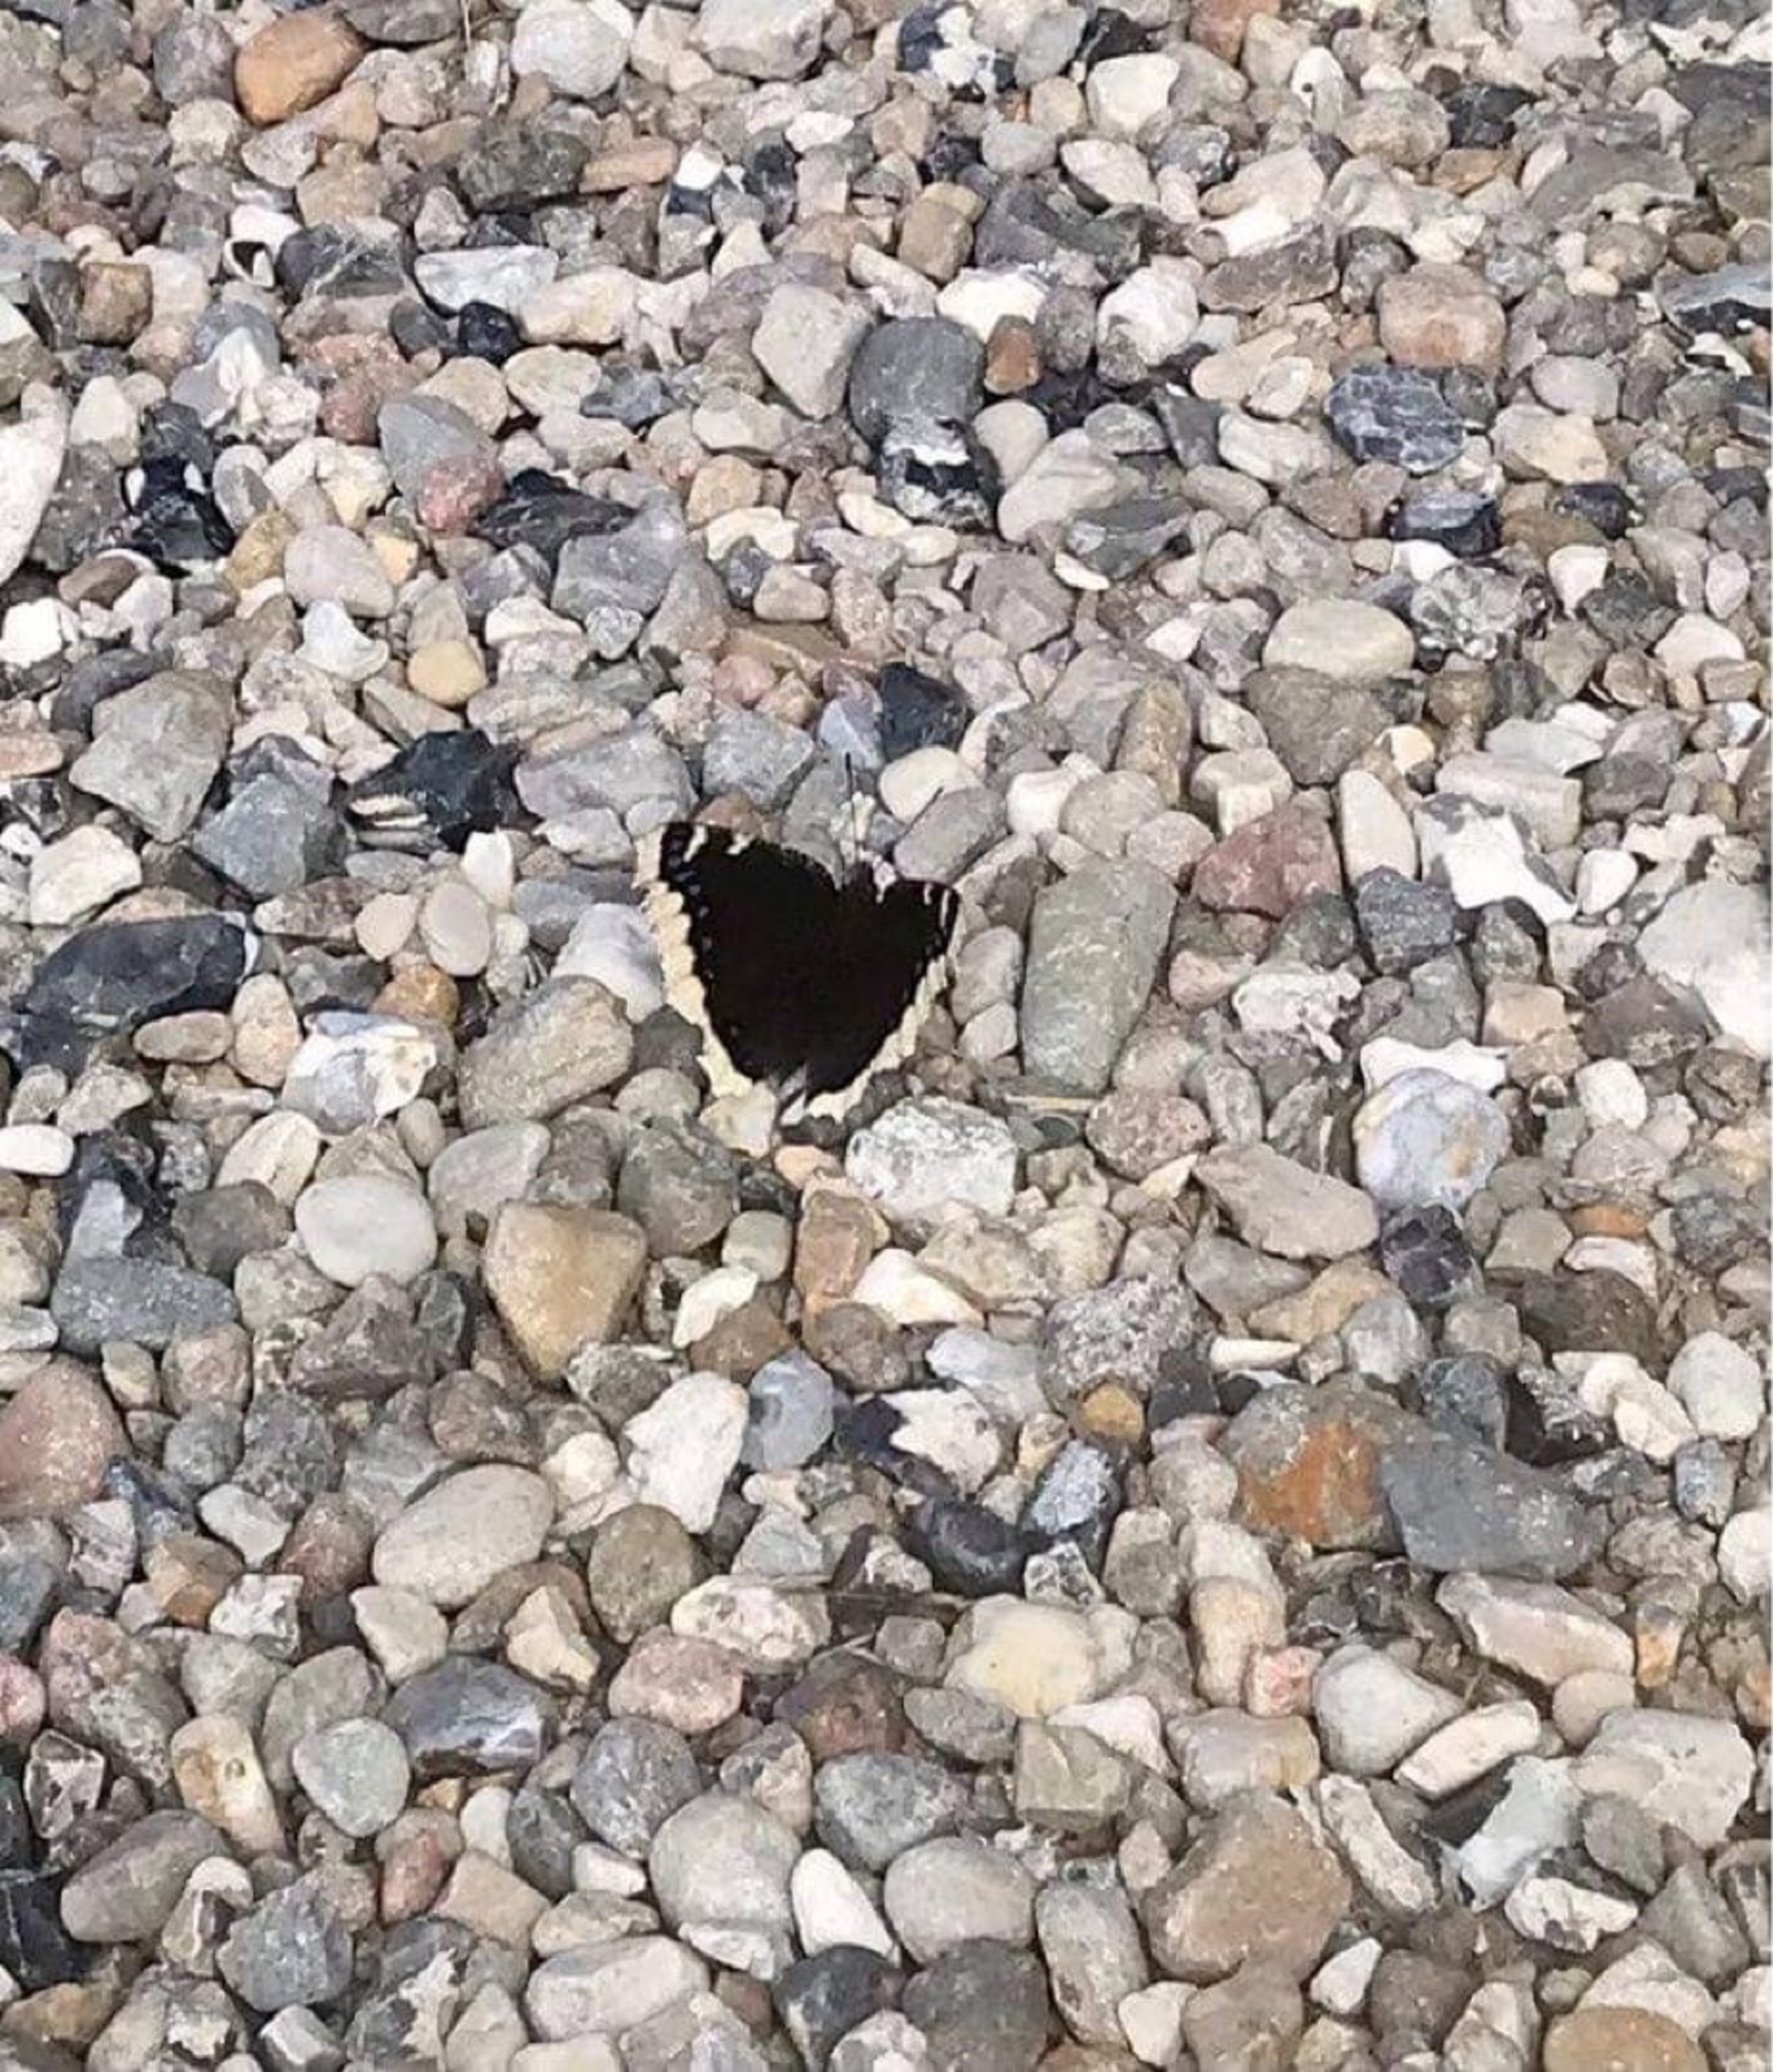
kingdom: Animalia
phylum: Arthropoda
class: Insecta
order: Lepidoptera
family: Nymphalidae
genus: Nymphalis
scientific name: Nymphalis antiopa
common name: Sørgekåbe
